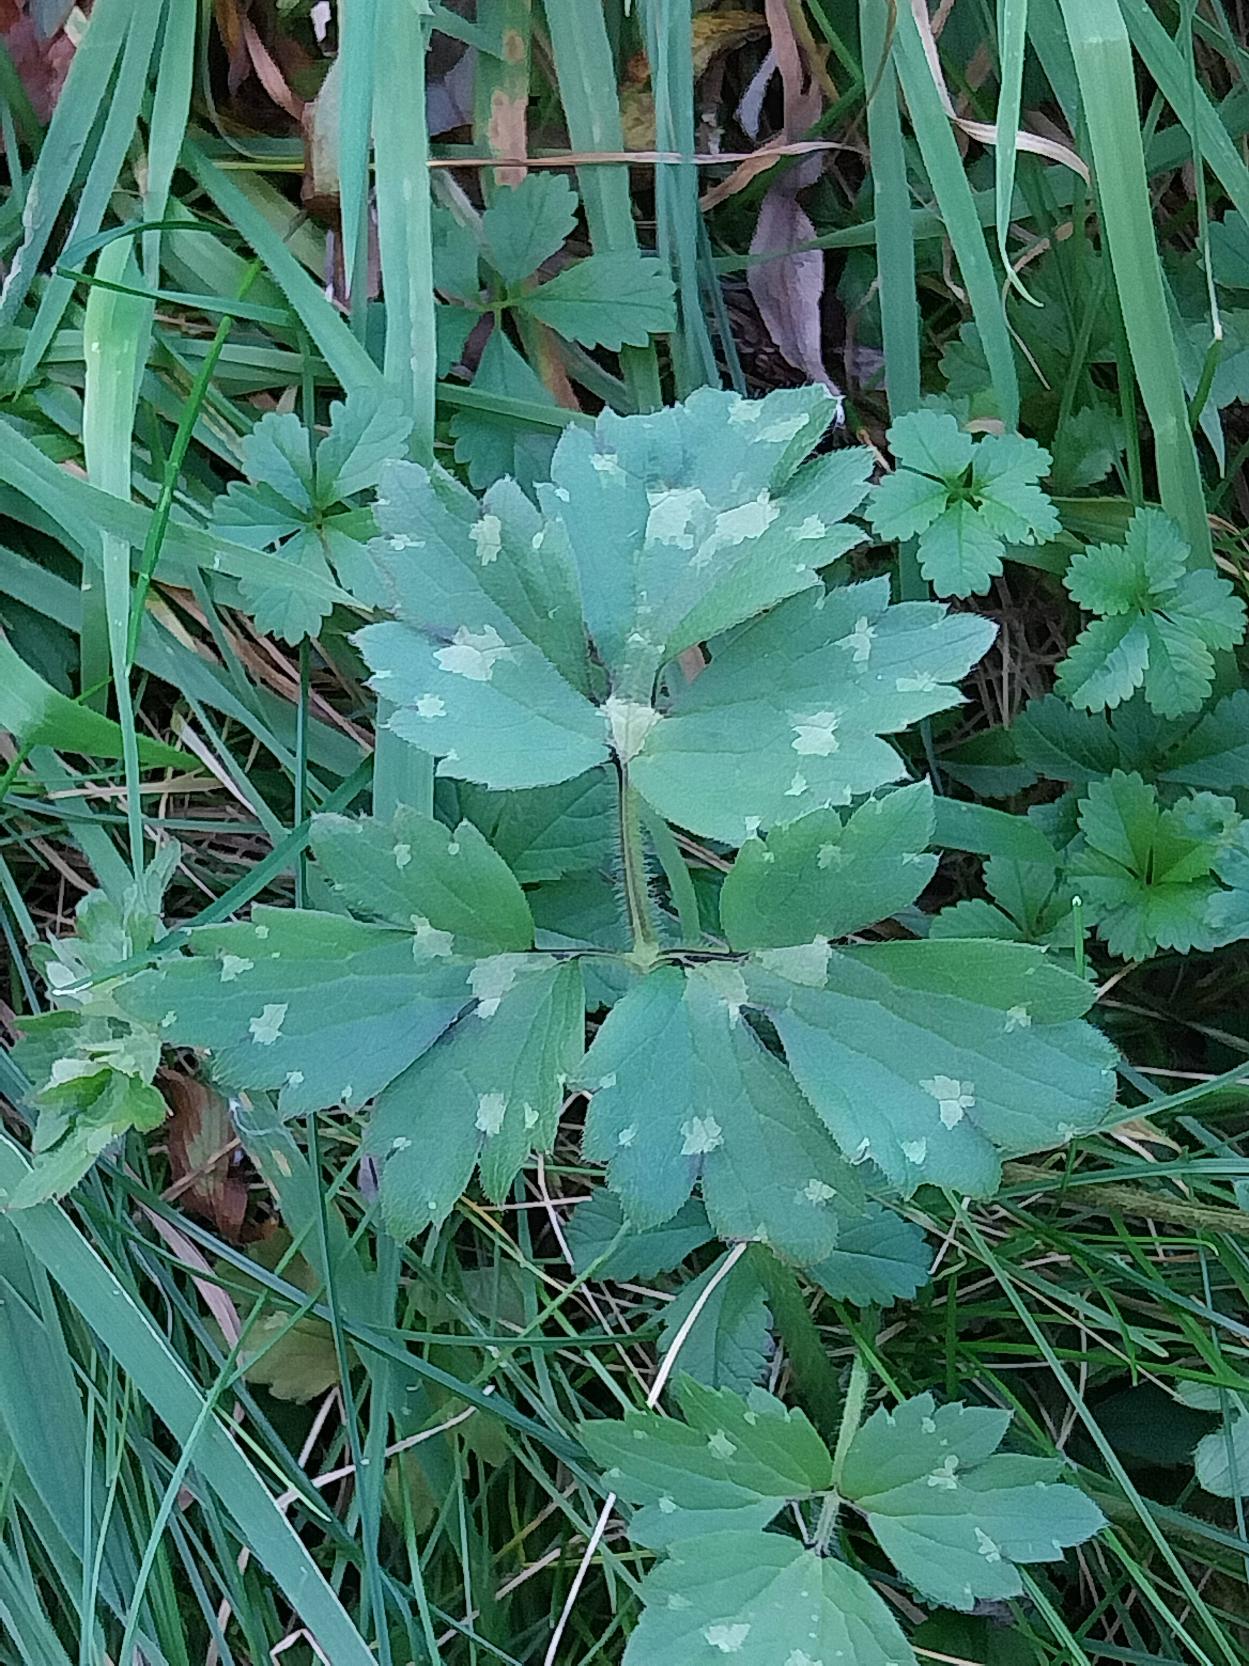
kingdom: Plantae
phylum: Tracheophyta
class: Magnoliopsida
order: Ranunculales
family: Ranunculaceae
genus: Ranunculus
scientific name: Ranunculus repens
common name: Lav ranunkel
